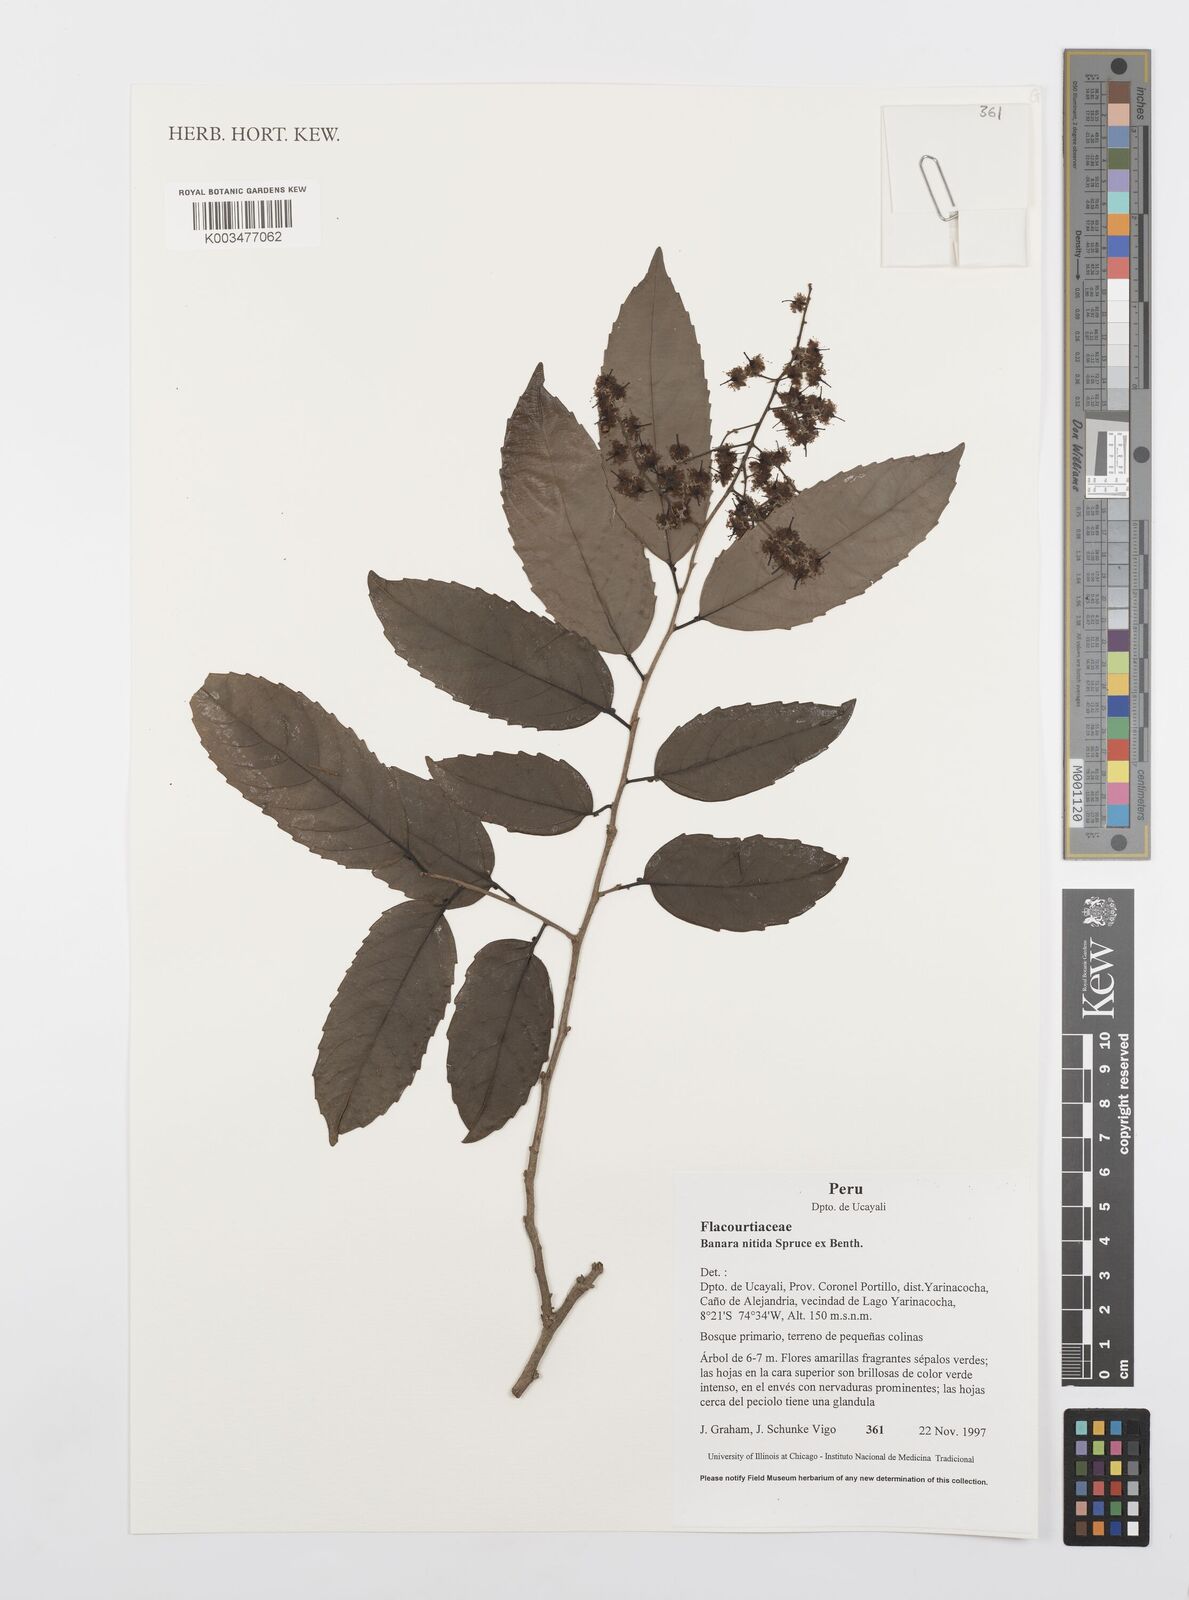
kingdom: Plantae
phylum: Tracheophyta
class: Magnoliopsida
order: Malpighiales
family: Salicaceae
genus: Banara
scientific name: Banara nitida
